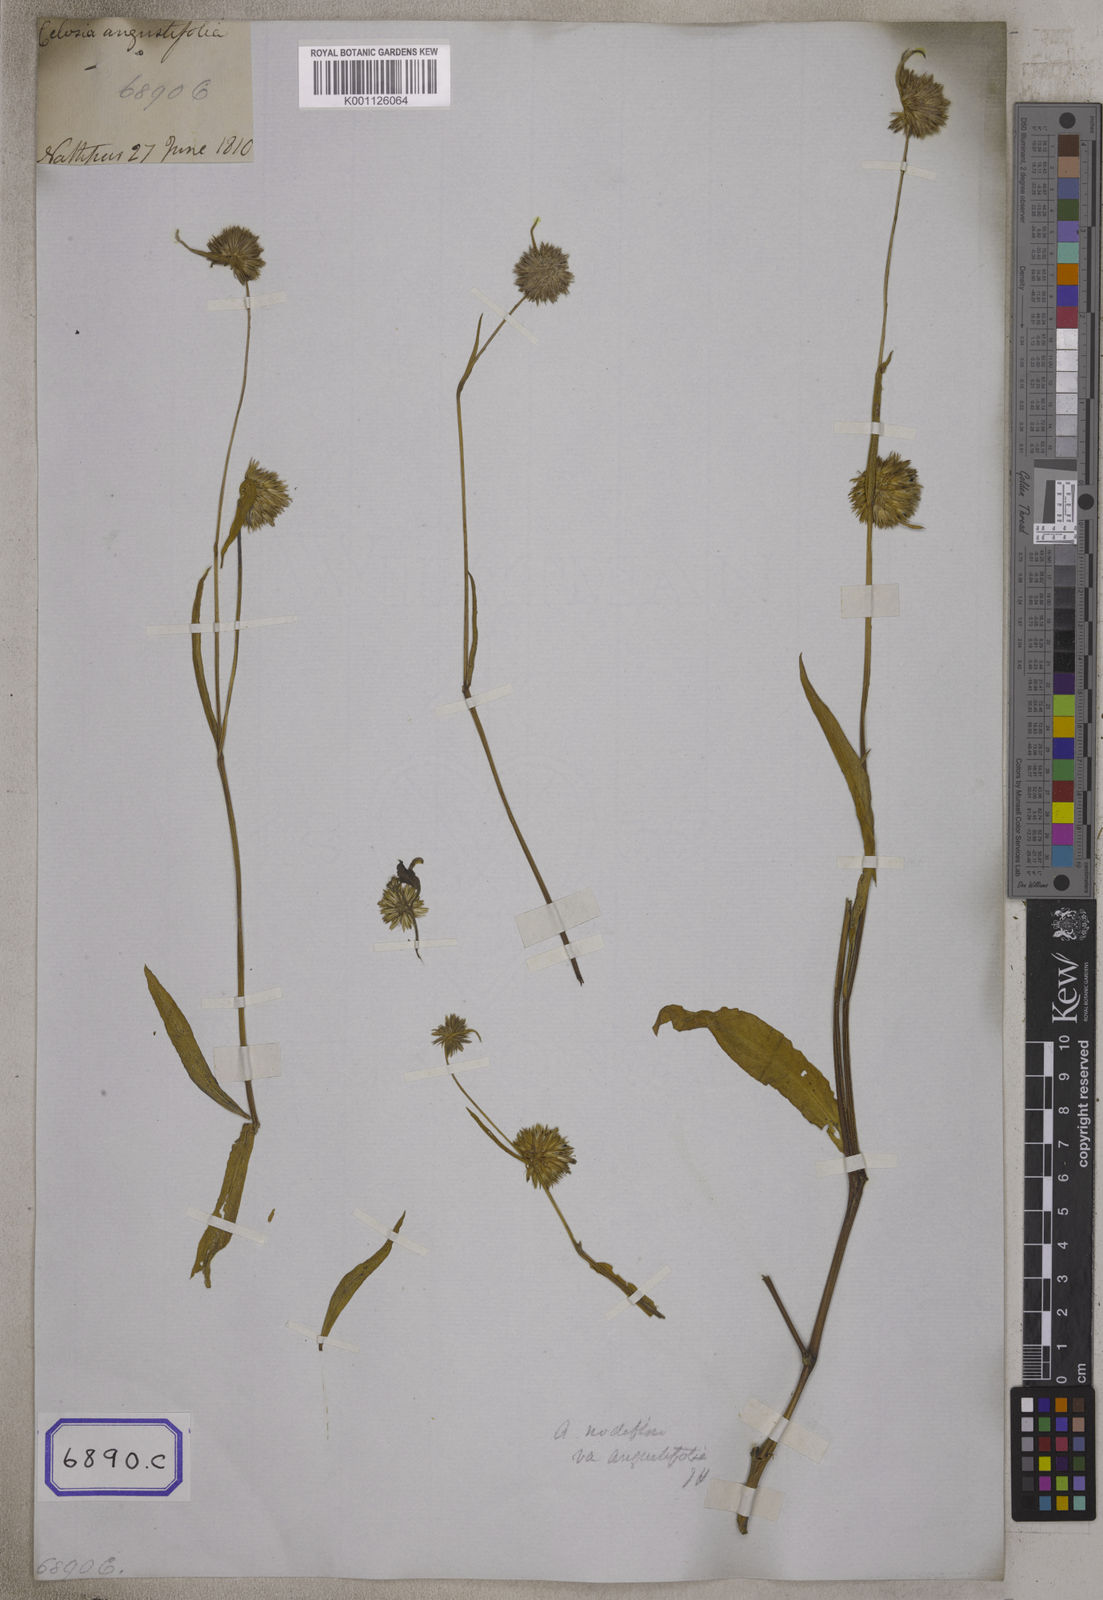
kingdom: Plantae
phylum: Tracheophyta
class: Magnoliopsida
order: Caryophyllales
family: Amaranthaceae
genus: Allmania
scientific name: Allmania
